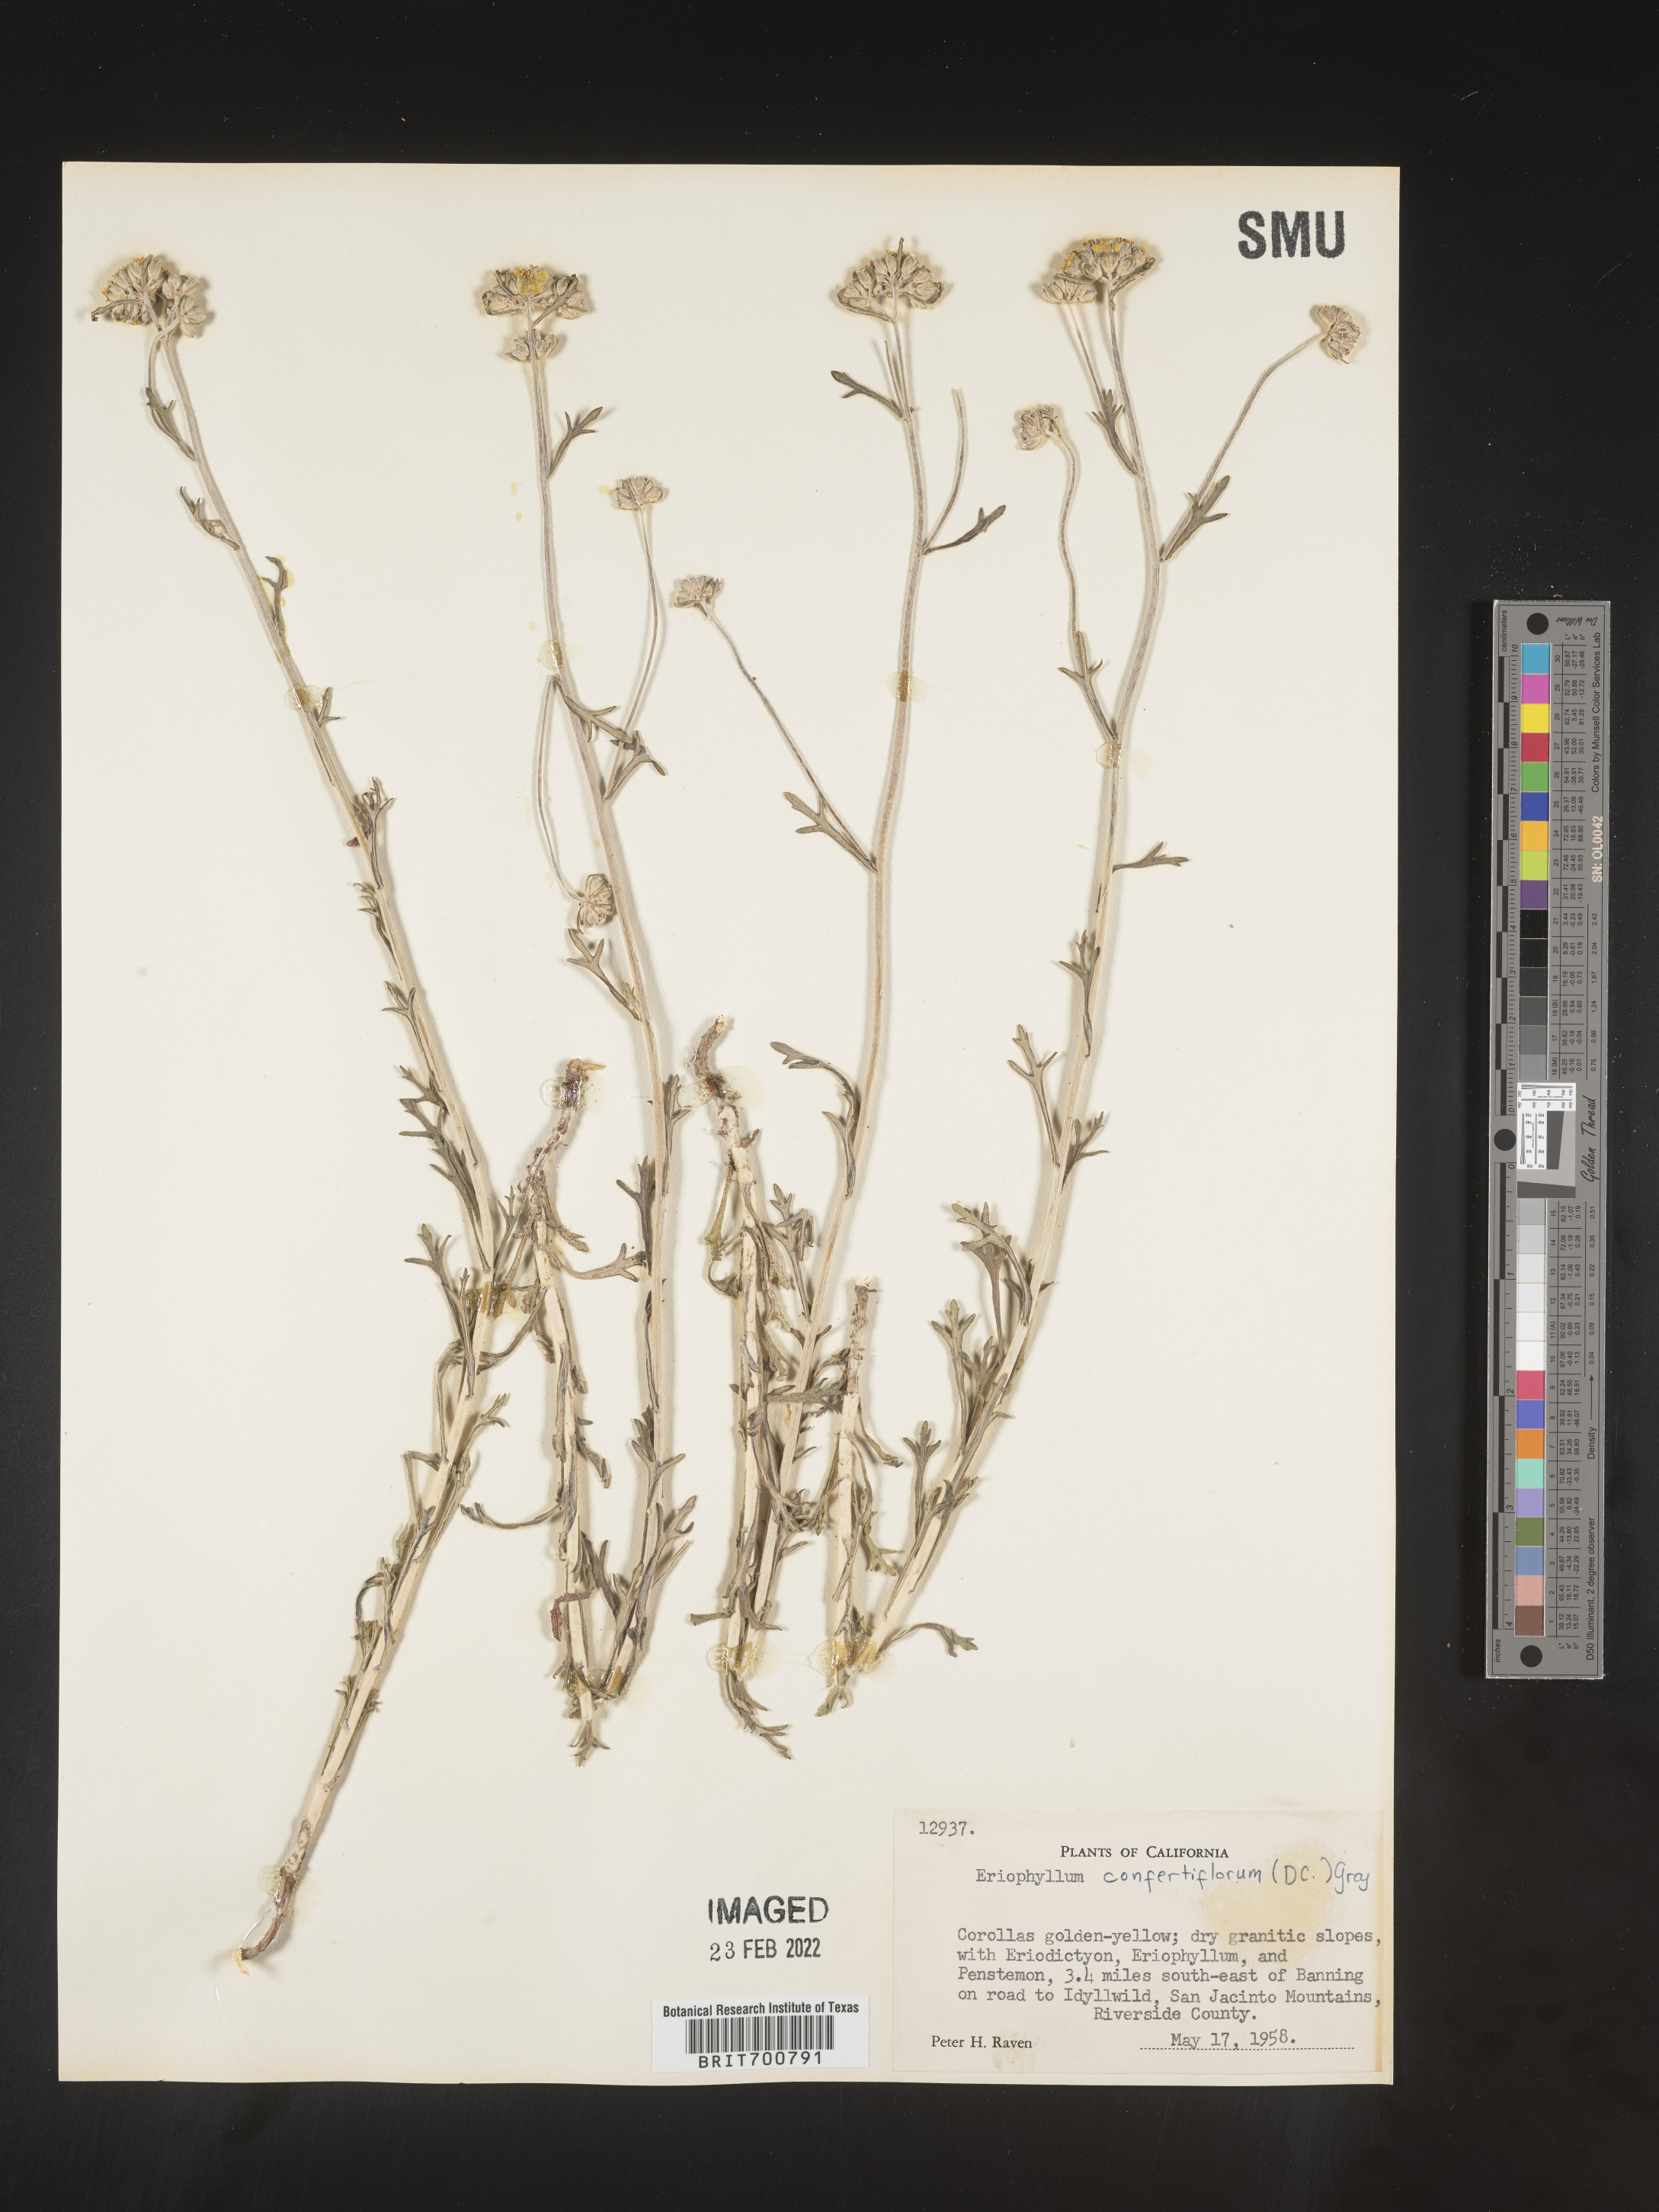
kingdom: Plantae
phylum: Tracheophyta
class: Magnoliopsida
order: Asterales
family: Asteraceae
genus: Eriophyllum
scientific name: Eriophyllum confertiflorum
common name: Golden-yarrow
